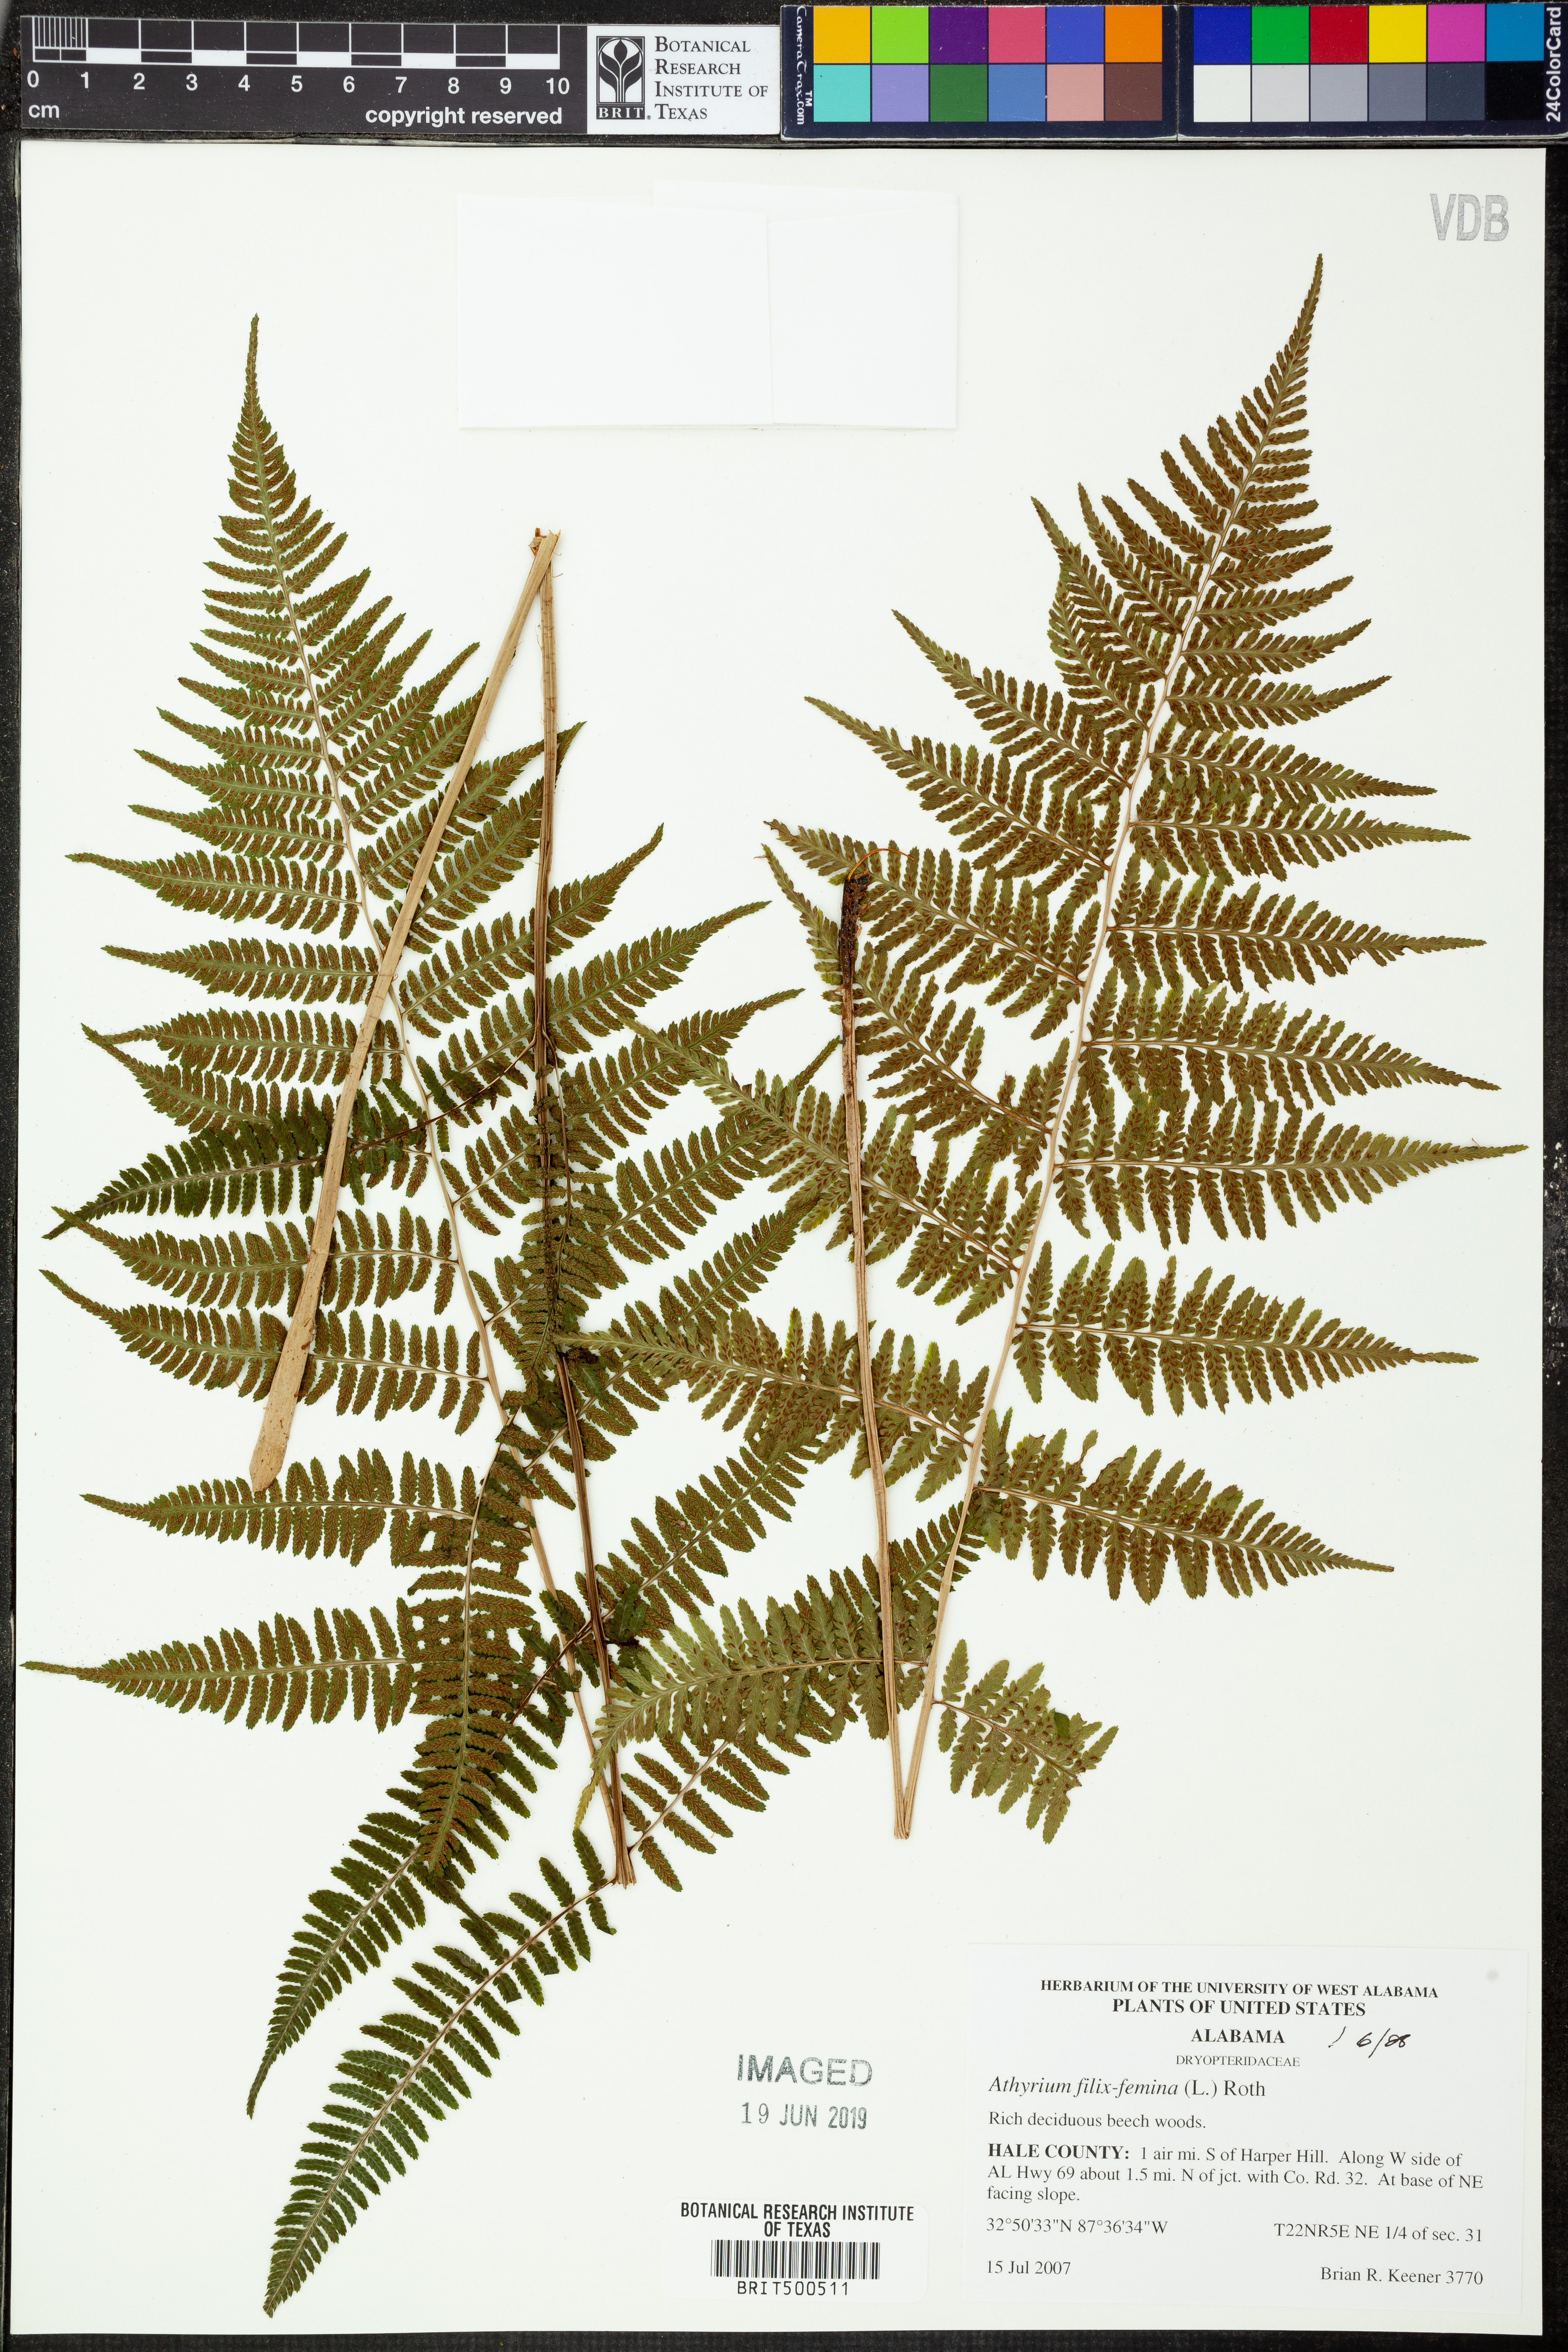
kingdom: Plantae
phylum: Tracheophyta
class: Polypodiopsida
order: Polypodiales
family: Athyriaceae
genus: Athyrium
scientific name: Athyrium filix-femina
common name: Lady fern
